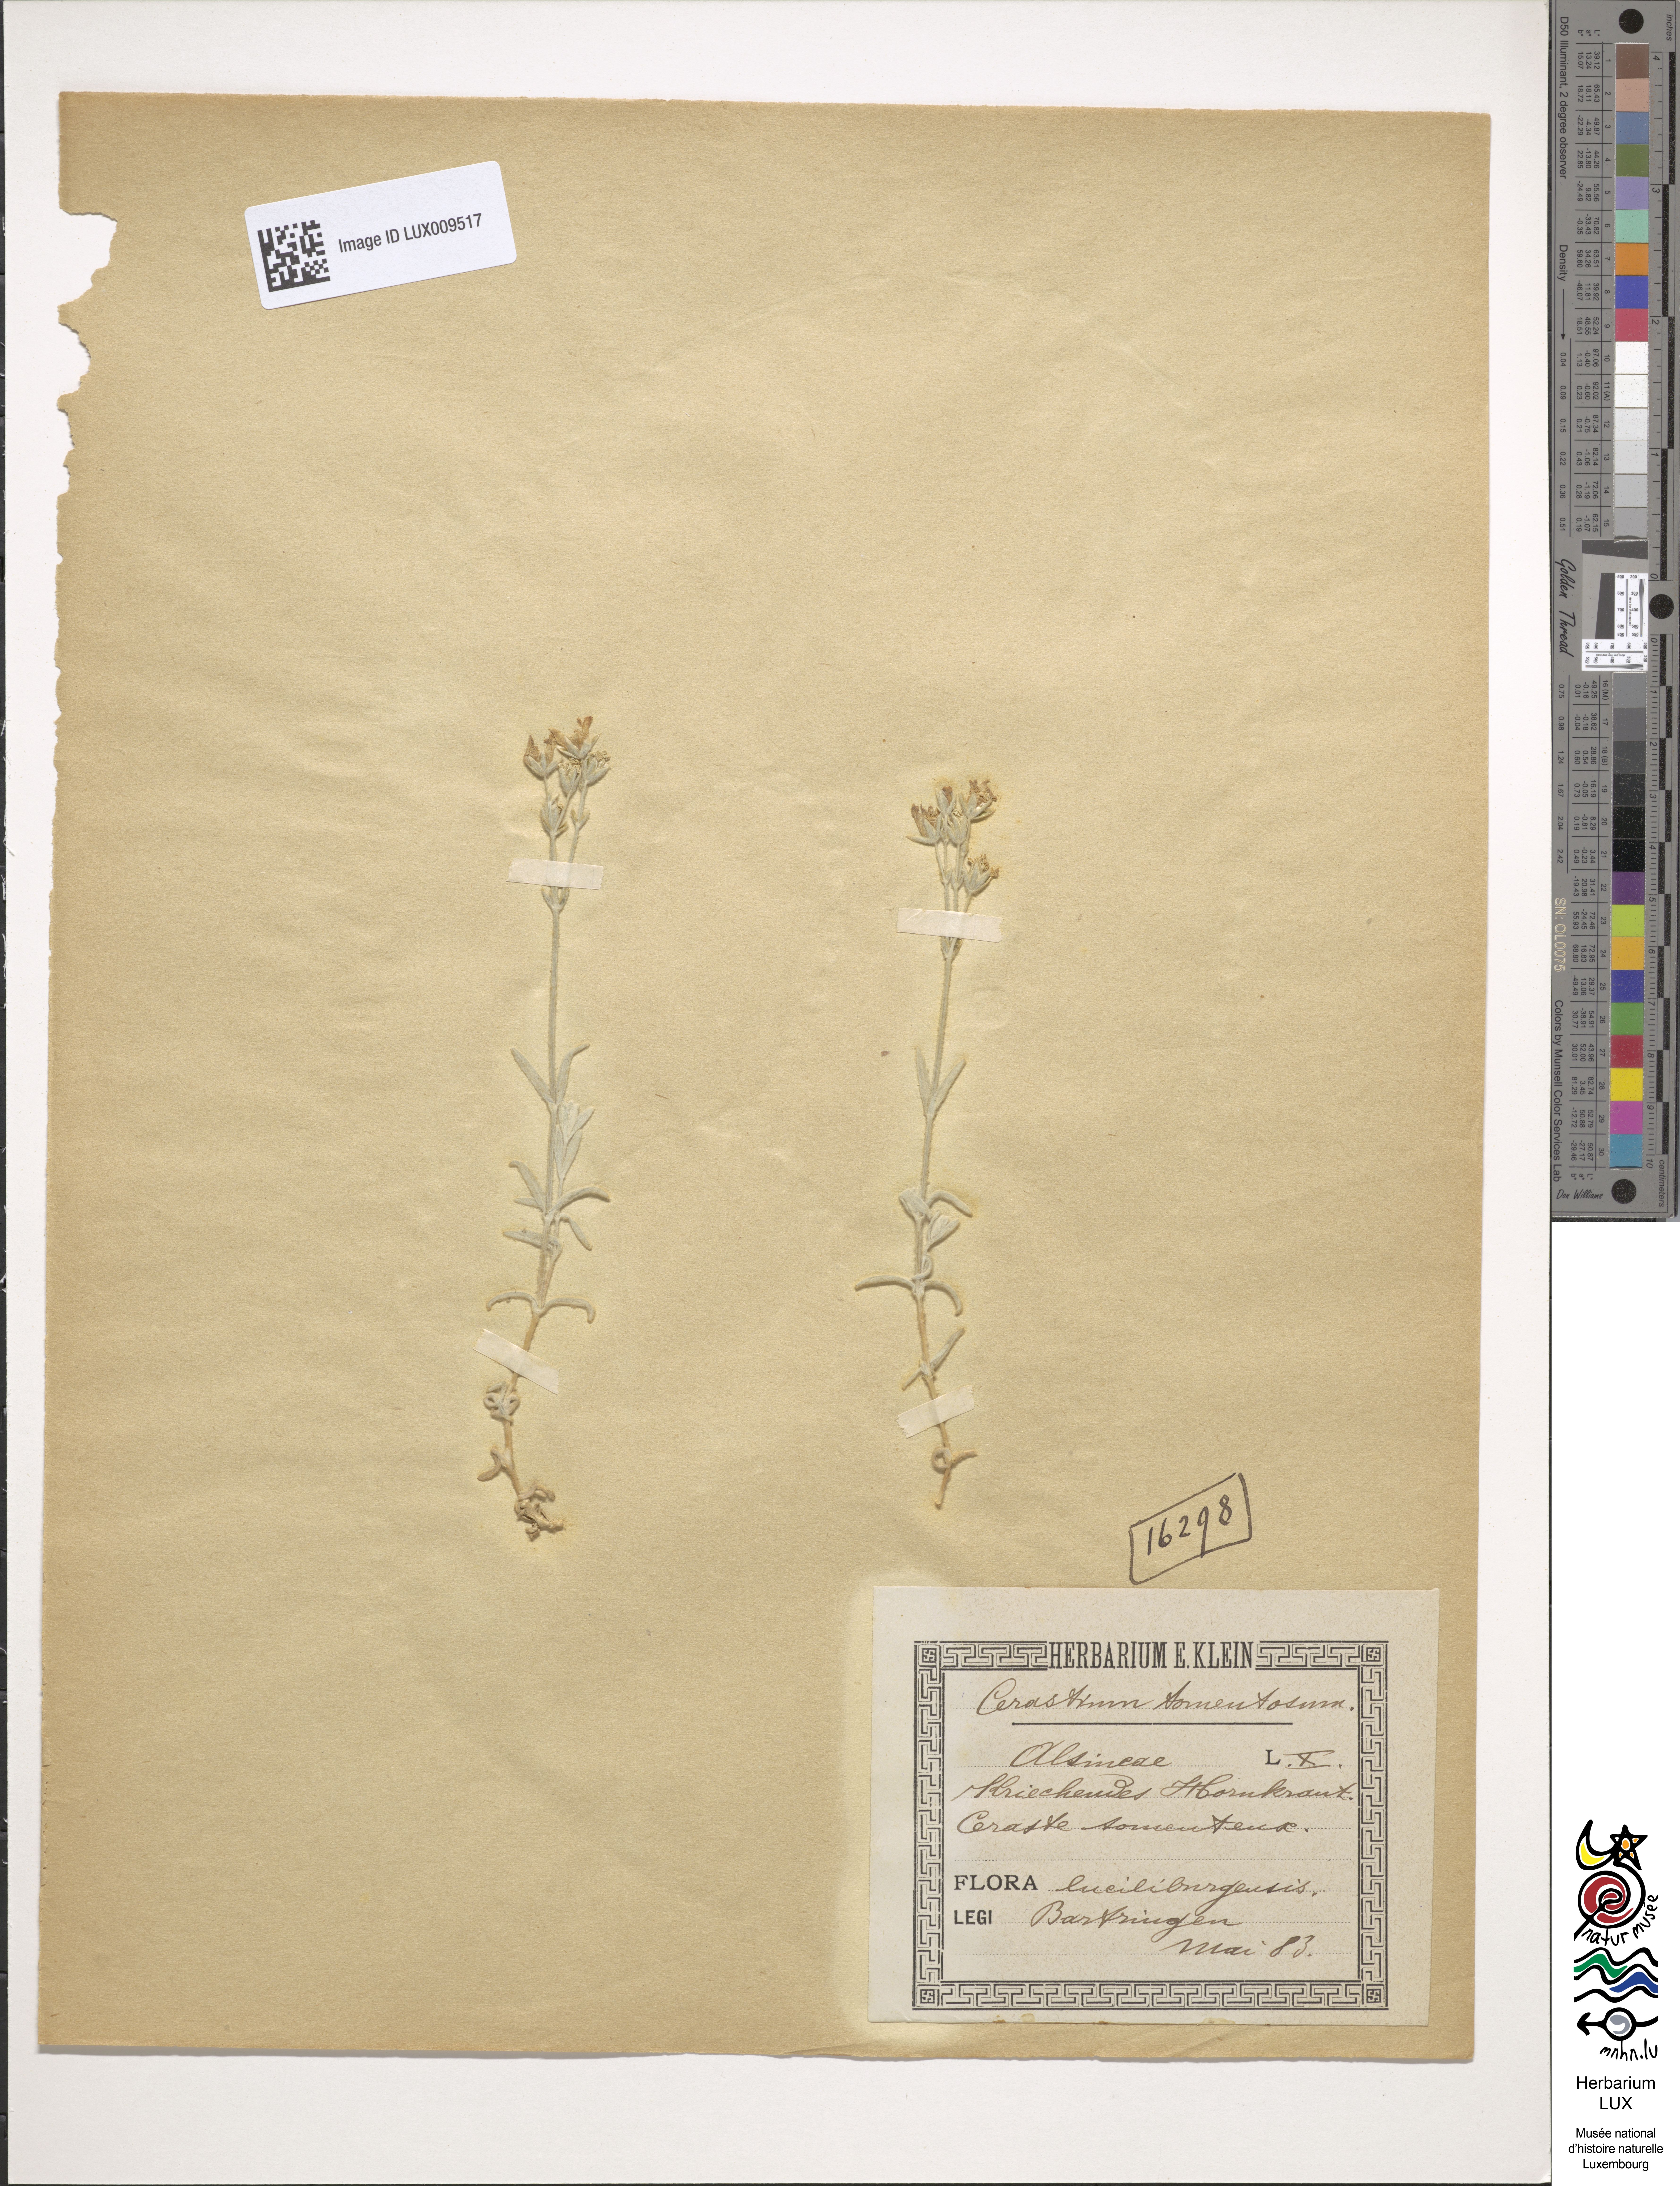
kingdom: Plantae
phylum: Tracheophyta
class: Magnoliopsida
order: Caryophyllales
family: Caryophyllaceae
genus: Cerastium
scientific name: Cerastium tomentosum
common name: Snow-in-summer
